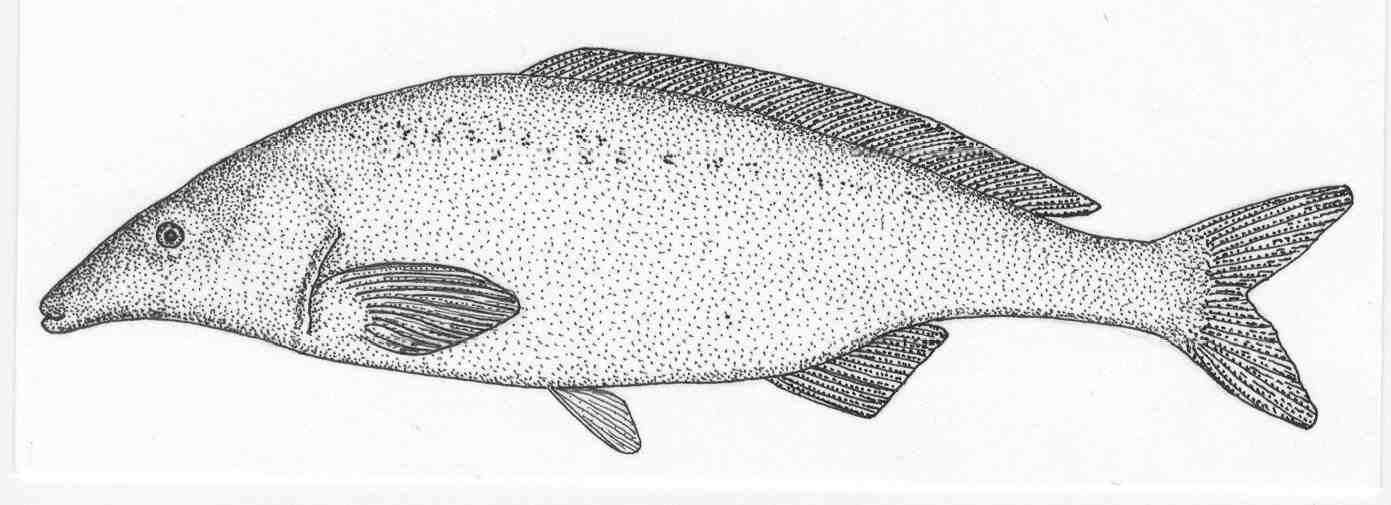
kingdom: Animalia
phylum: Chordata
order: Osteoglossiformes
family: Mormyridae
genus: Mormyrus
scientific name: Mormyrus longirostris
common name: Eastern bottlenose
